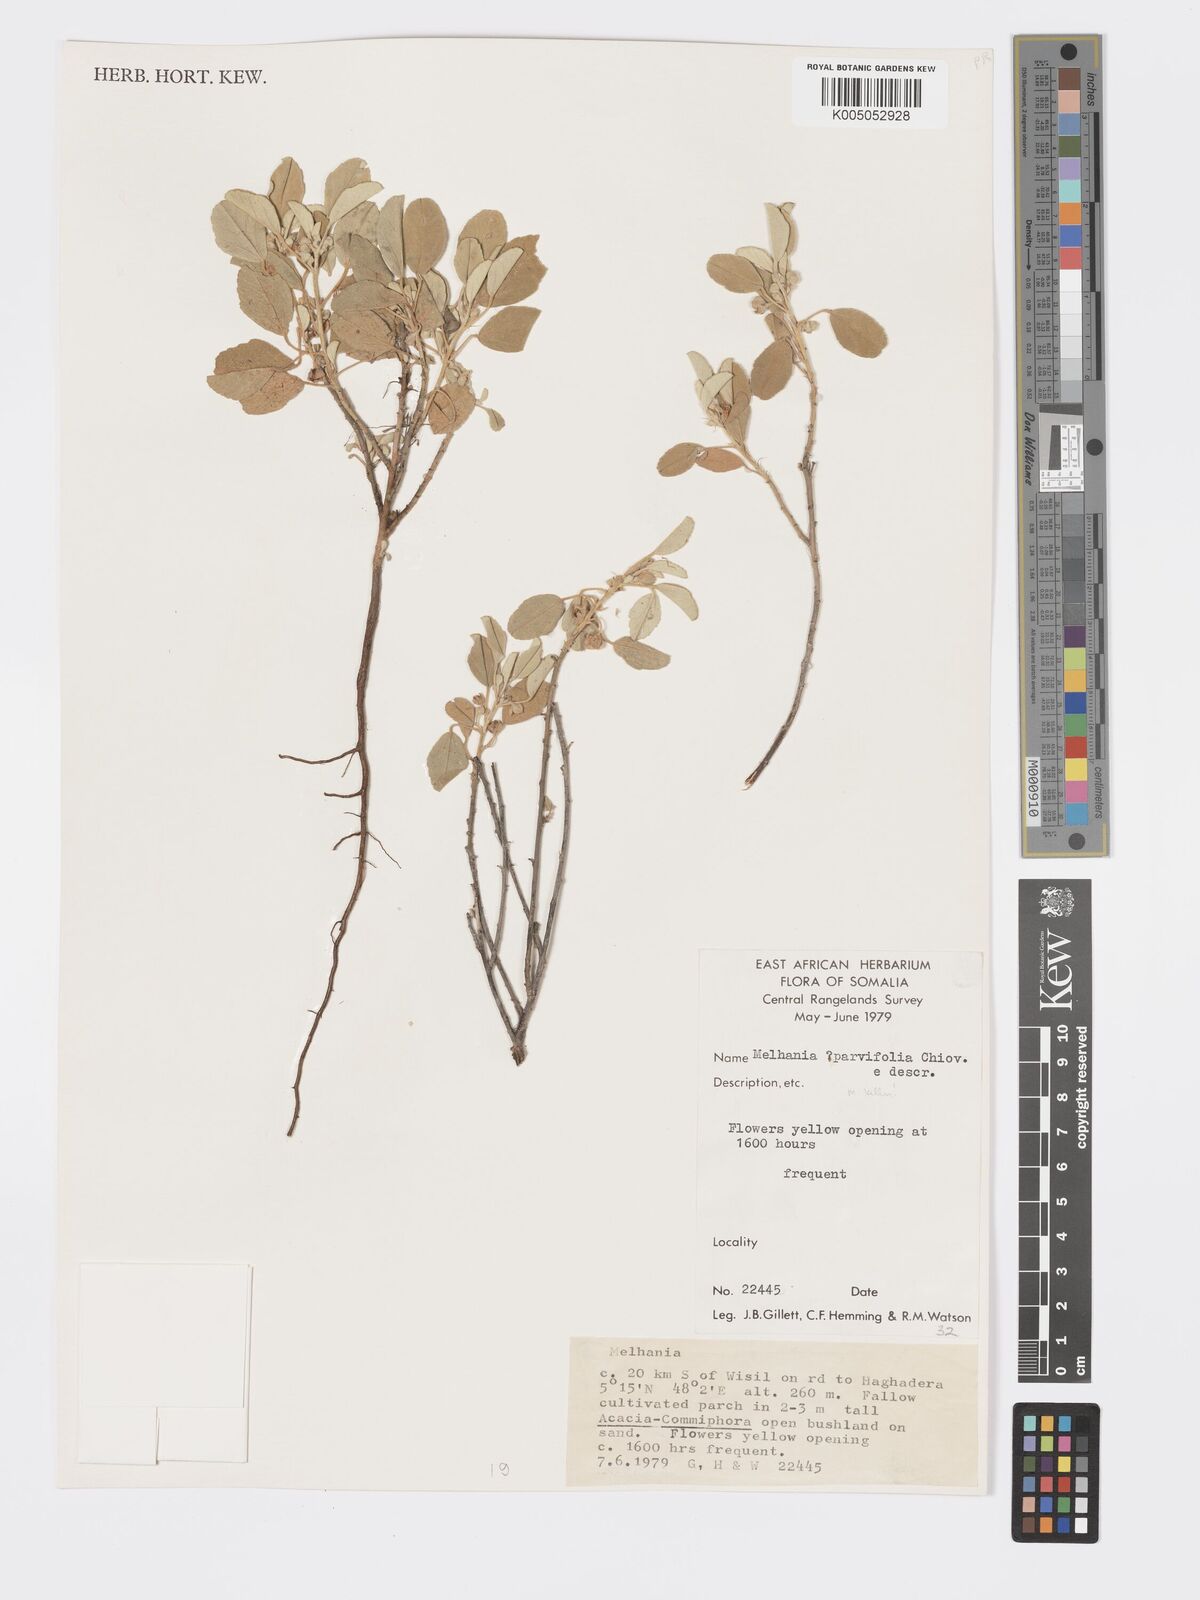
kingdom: Plantae
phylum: Tracheophyta
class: Magnoliopsida
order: Malvales
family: Malvaceae
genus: Melhania
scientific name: Melhania kelleri
